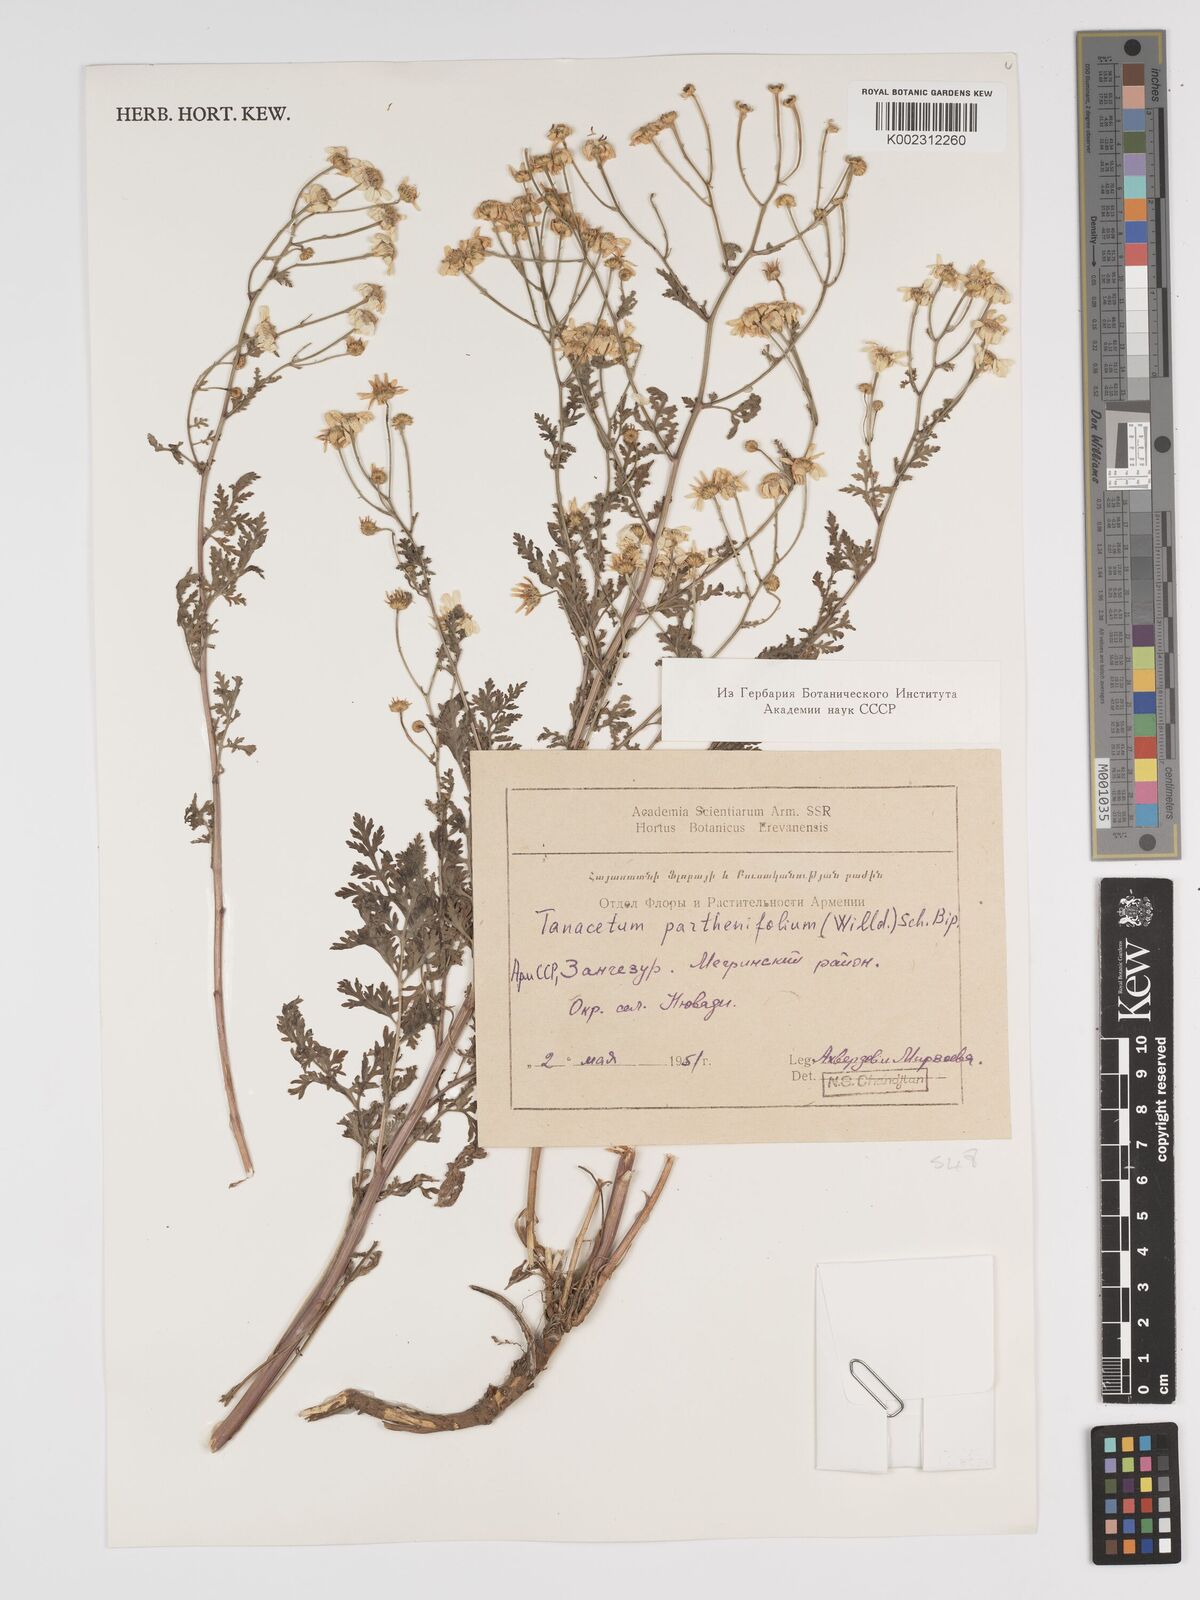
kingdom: Plantae
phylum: Tracheophyta
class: Magnoliopsida
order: Asterales
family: Asteraceae
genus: Tanacetum
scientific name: Tanacetum partheniifolium
